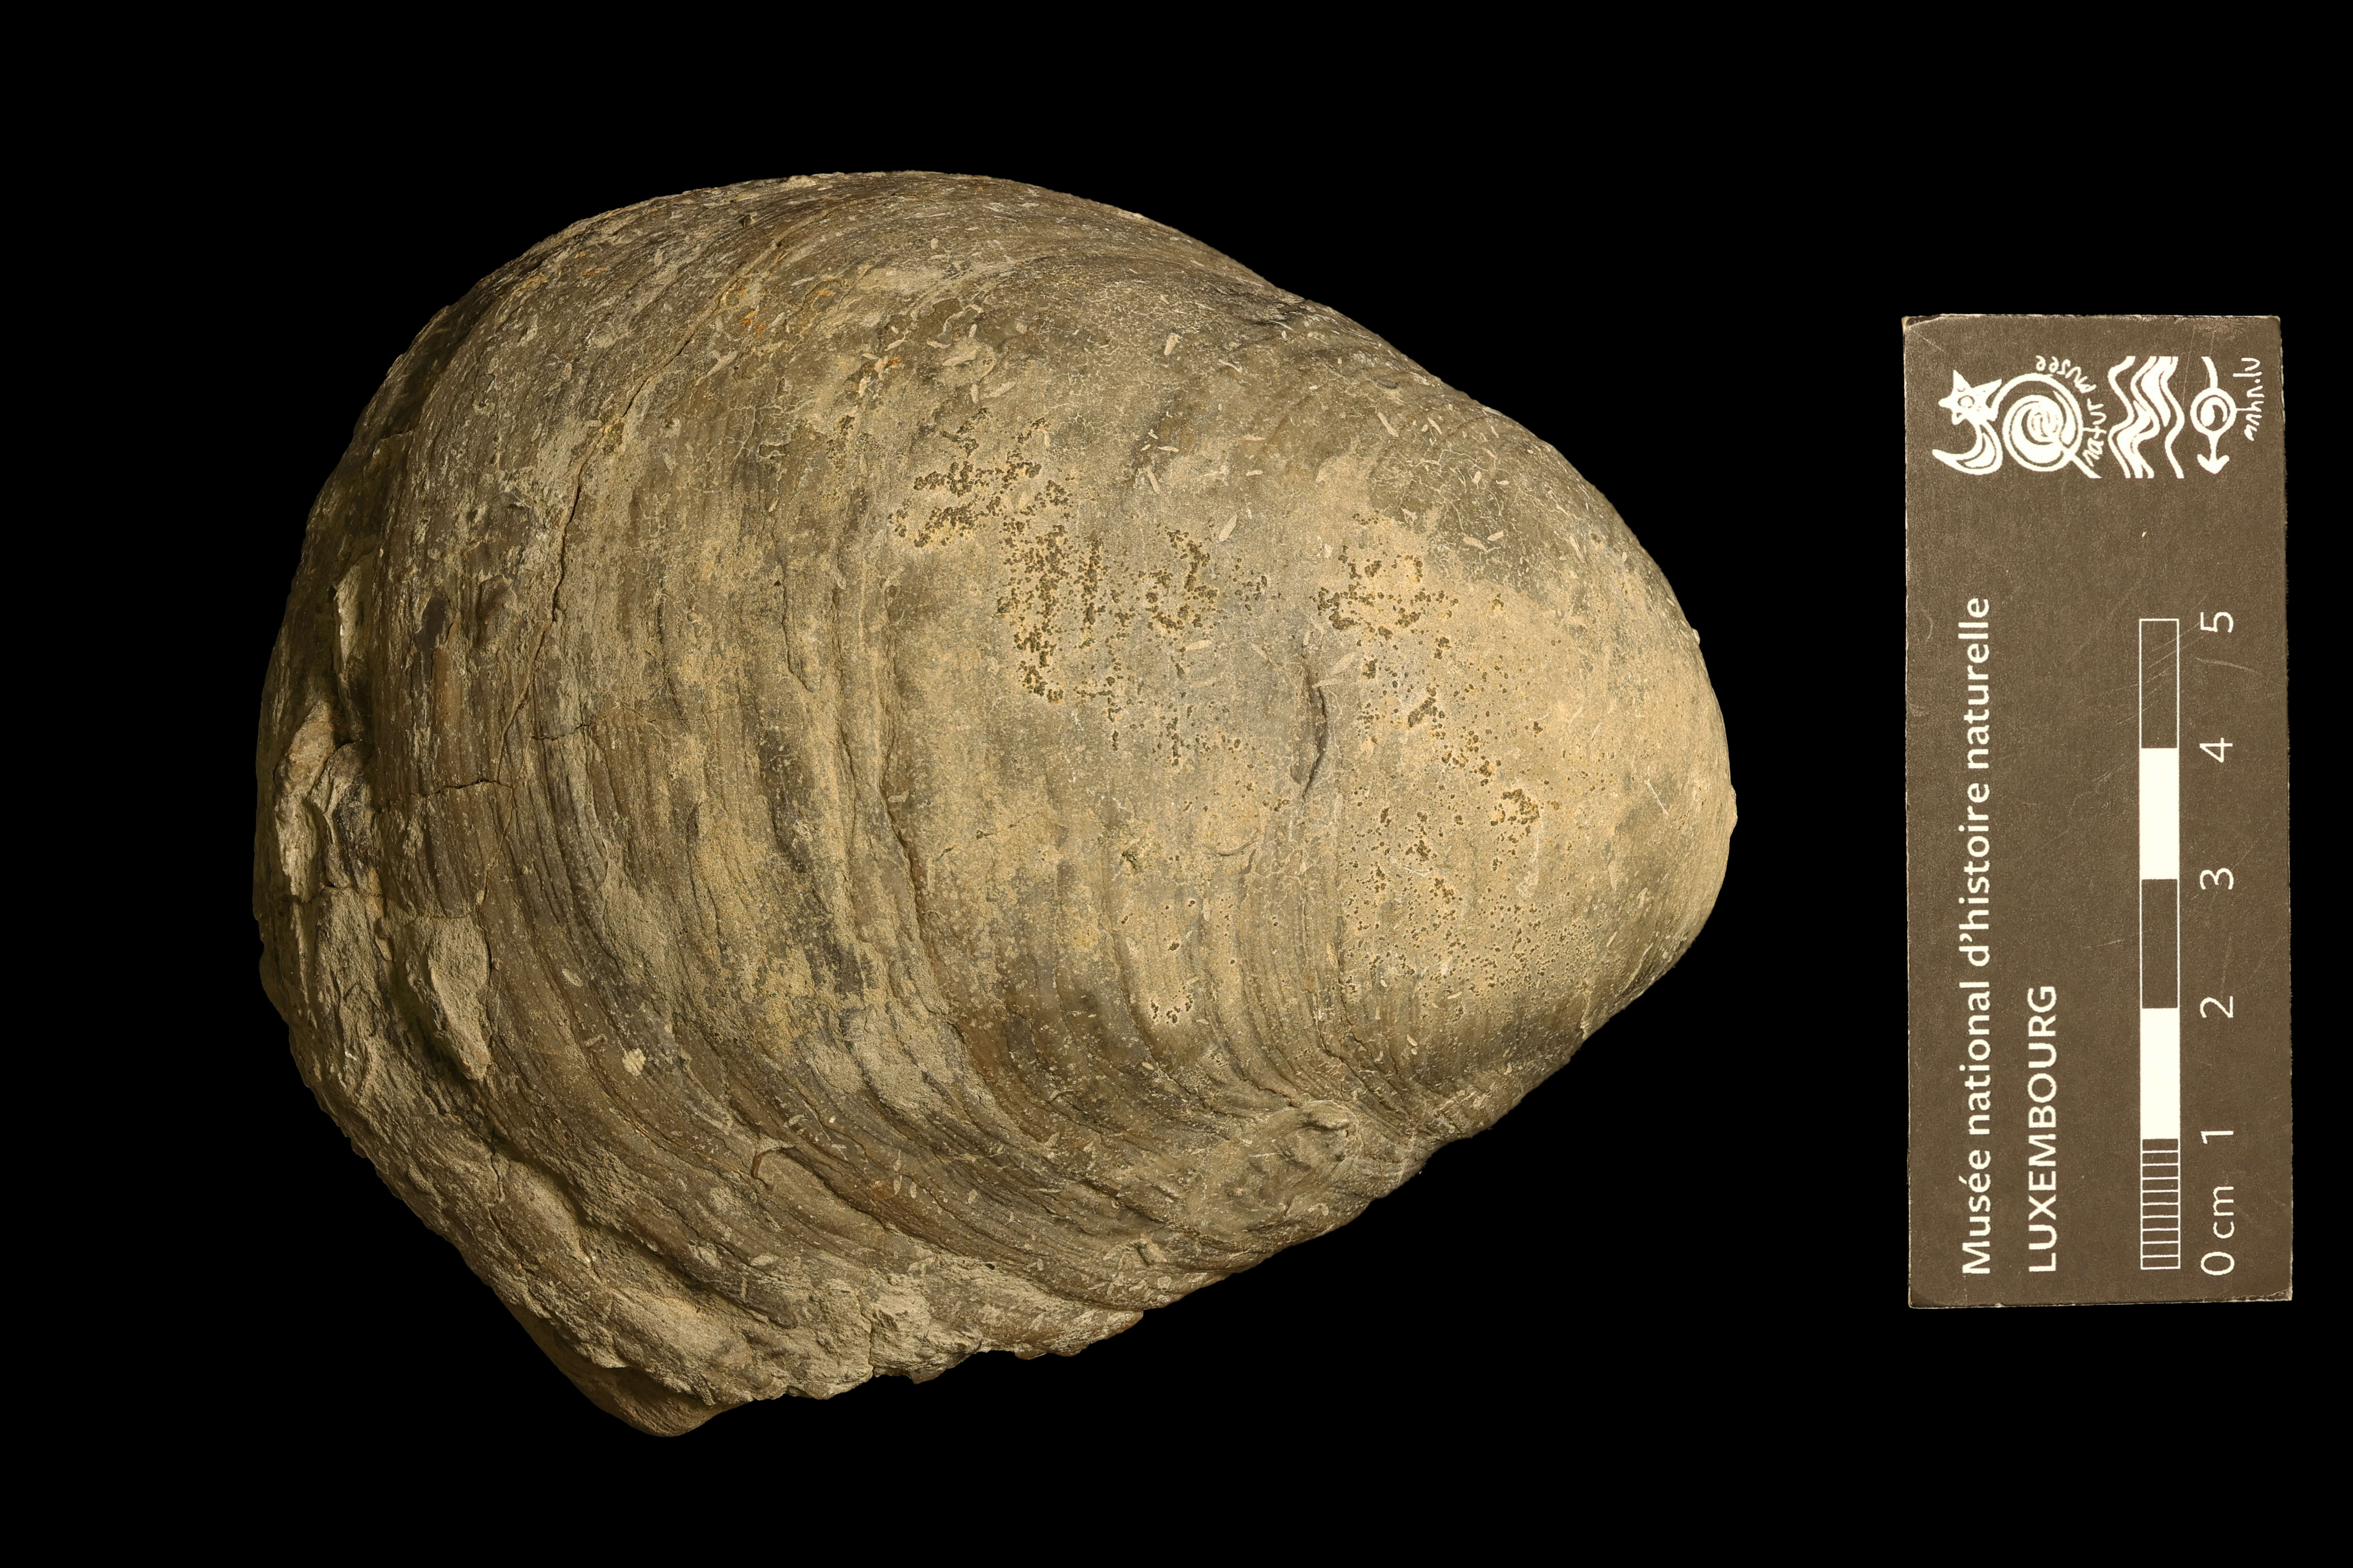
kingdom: Animalia
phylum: Mollusca
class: Bivalvia
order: Ostreida
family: Gryphaeidae
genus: Gryphaea
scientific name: Gryphaea gigantea
